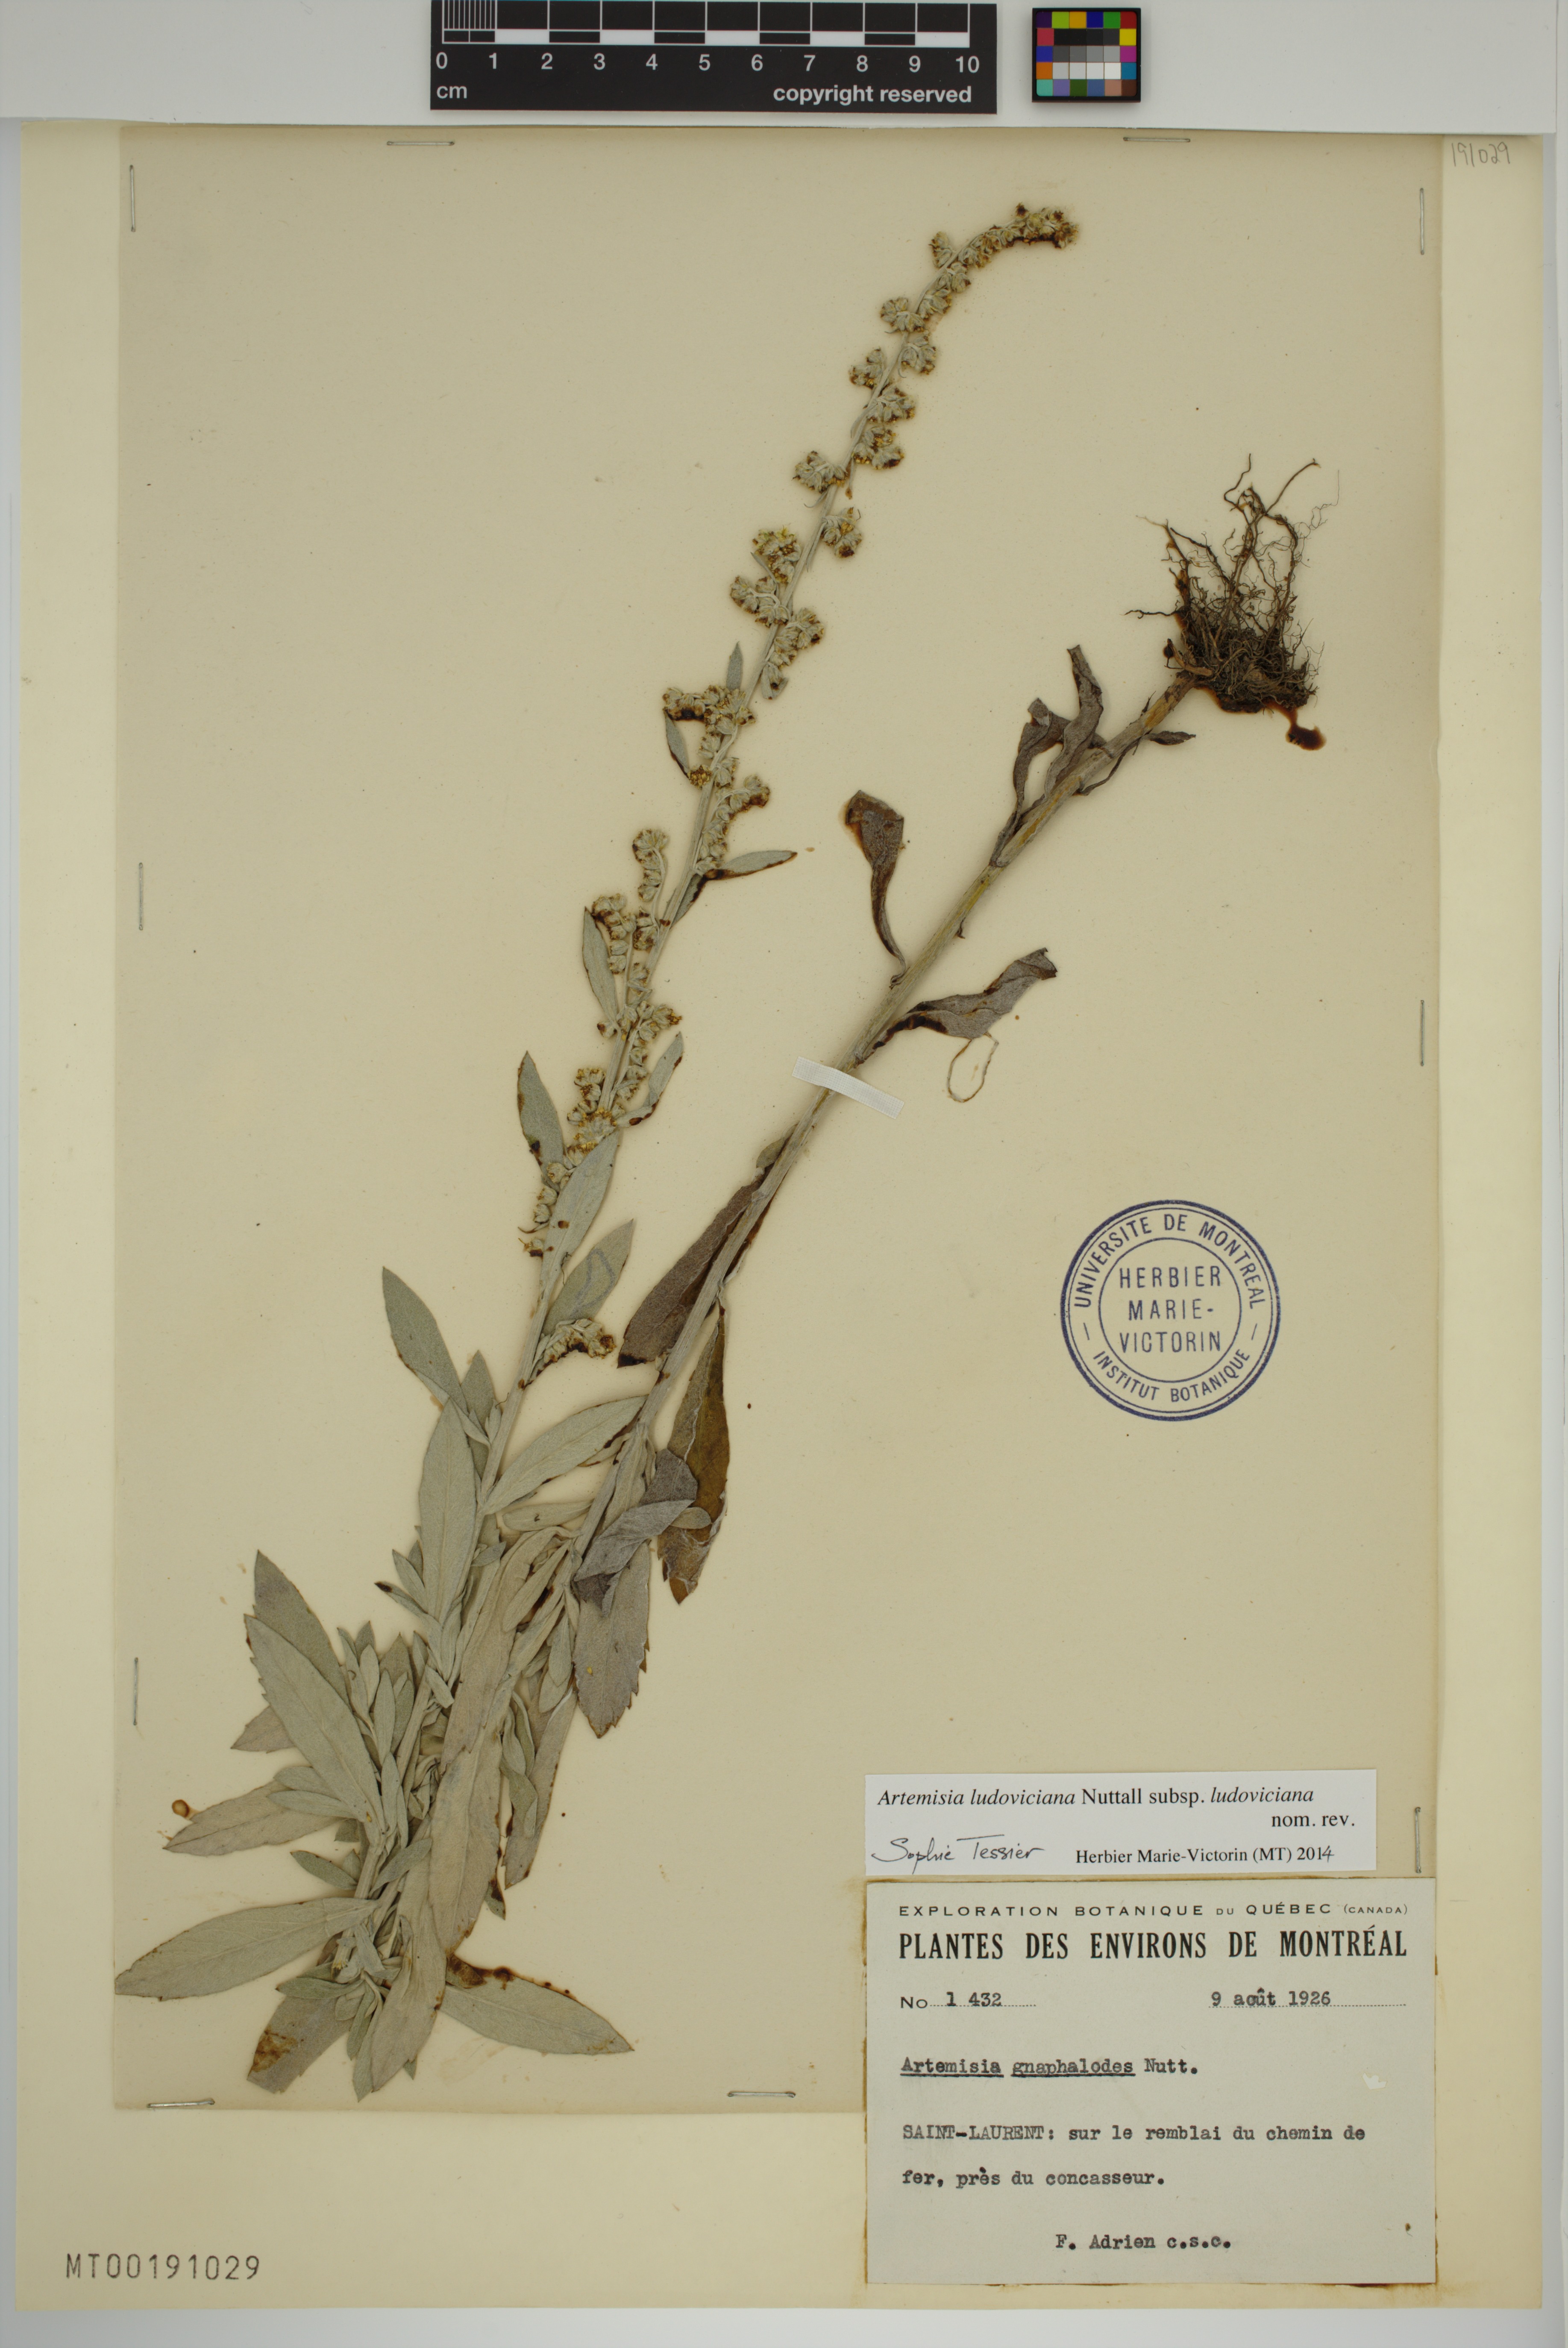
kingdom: Plantae
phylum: Tracheophyta
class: Magnoliopsida
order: Asterales
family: Asteraceae
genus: Artemisia
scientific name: Artemisia ludoviciana
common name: Western mugwort
